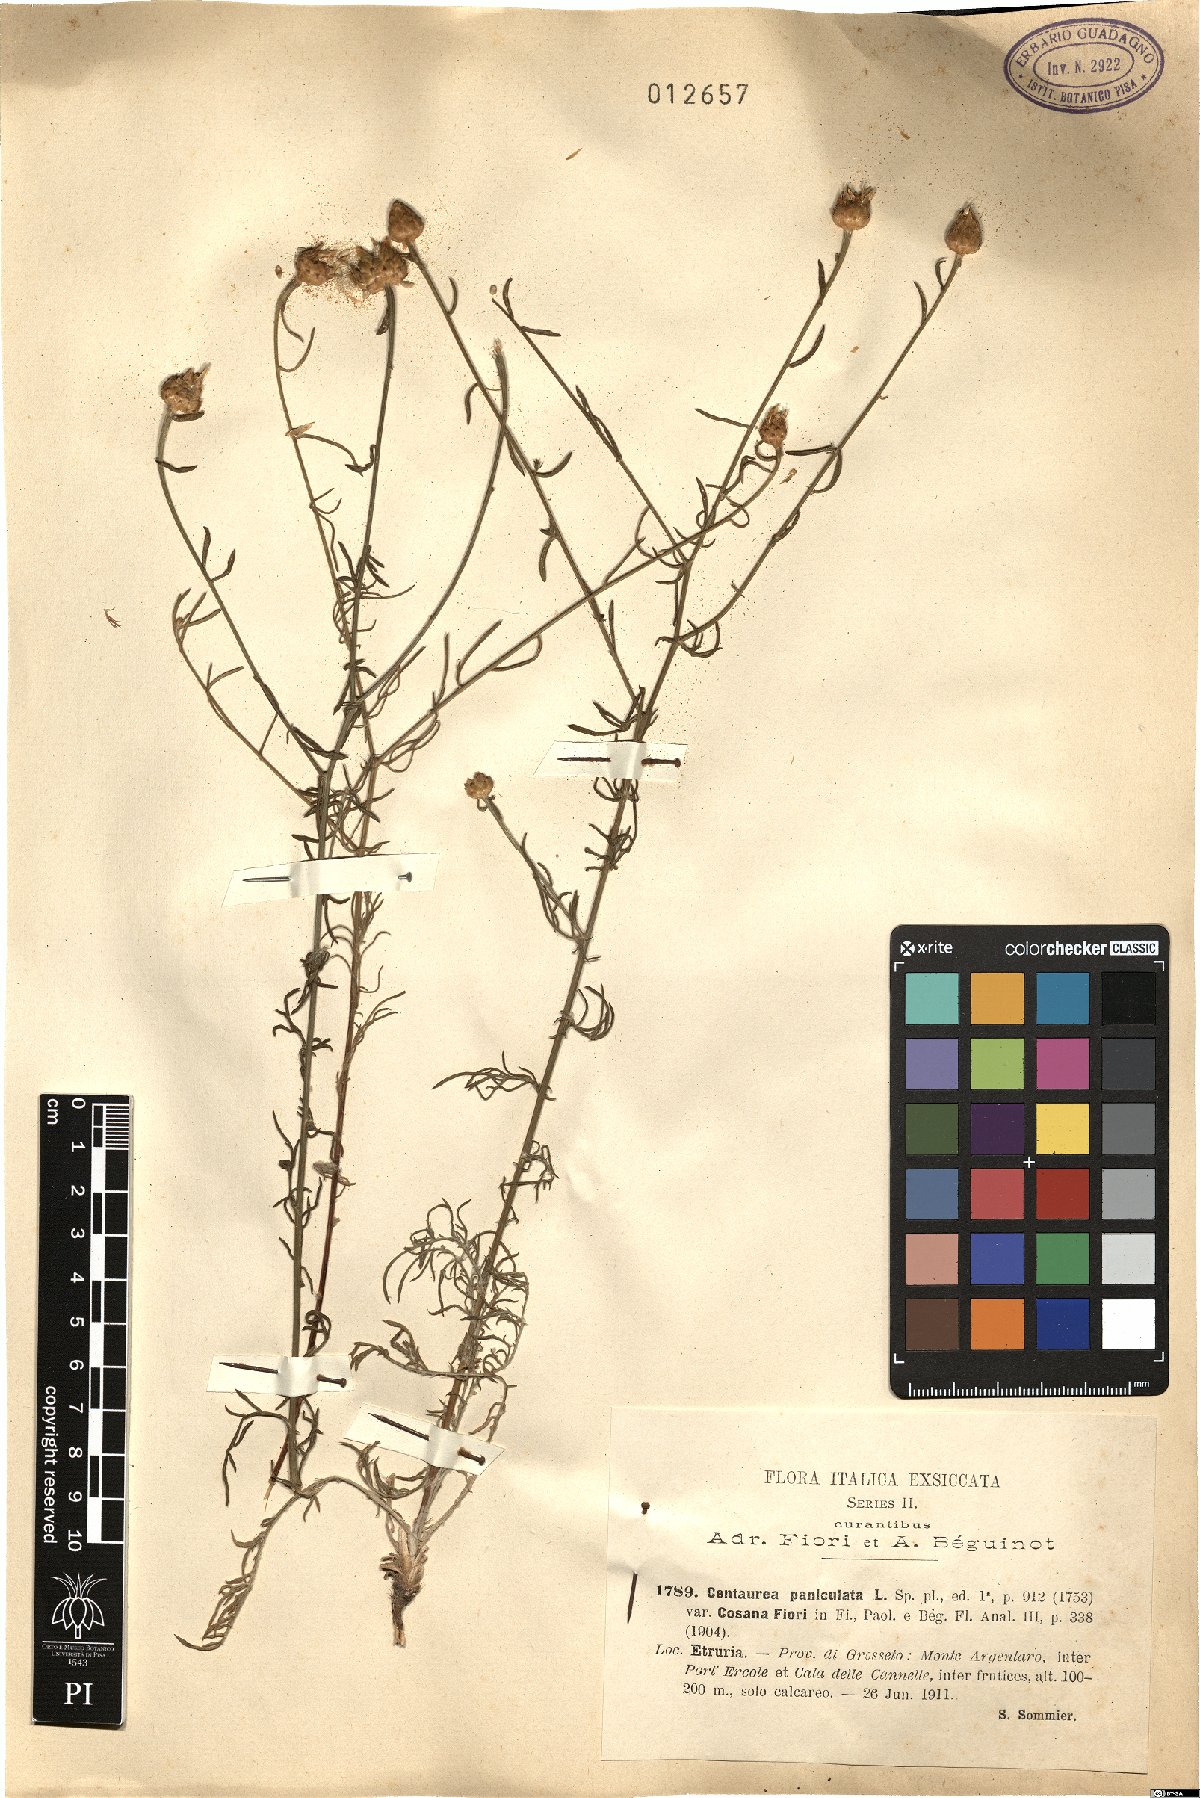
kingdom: Plantae
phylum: Tracheophyta
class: Magnoliopsida
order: Asterales
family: Asteraceae
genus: Centaurea
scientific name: Centaurea aplolepa
